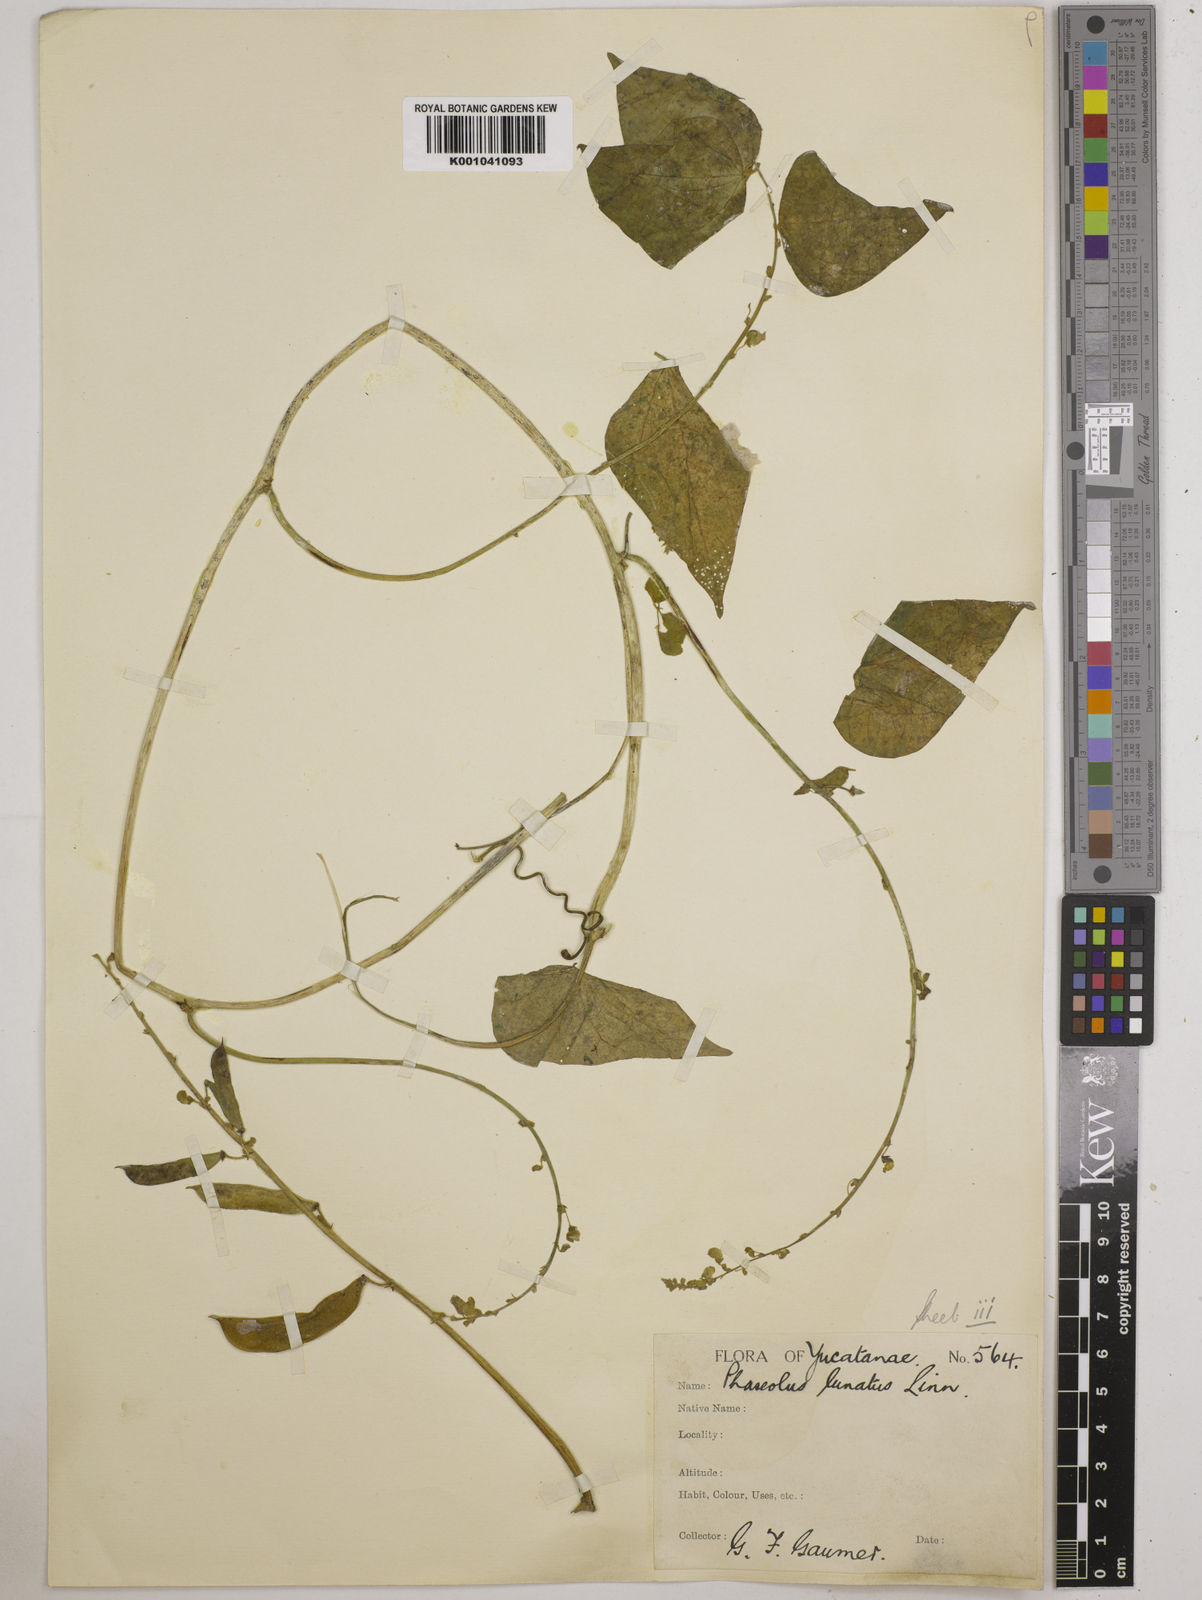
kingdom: Plantae
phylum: Tracheophyta
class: Magnoliopsida
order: Fabales
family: Fabaceae
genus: Phaseolus
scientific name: Phaseolus lunatus
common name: Sieva bean
